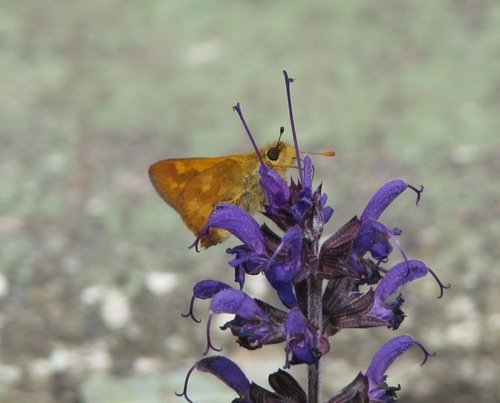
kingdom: Animalia
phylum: Arthropoda
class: Insecta
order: Lepidoptera
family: Hesperiidae
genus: Ochlodes
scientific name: Ochlodes sylvanoides
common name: Woodland Skipper
